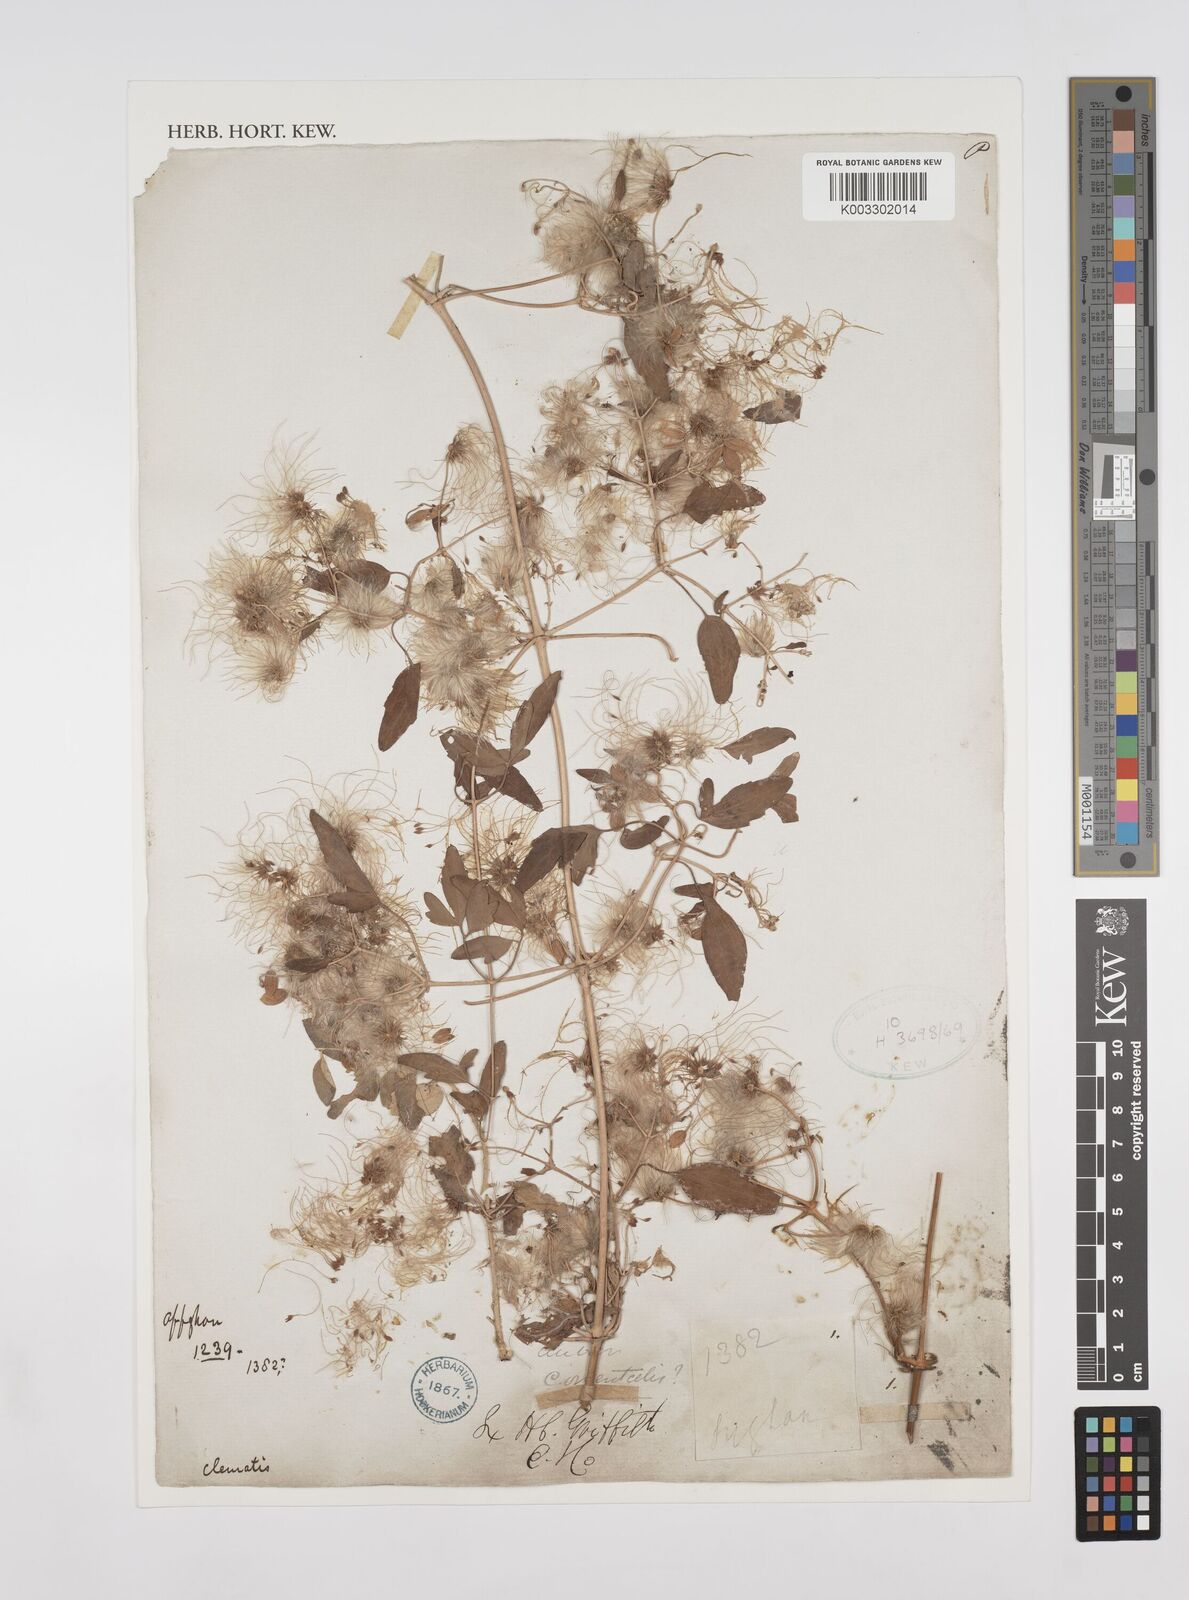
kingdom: Plantae
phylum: Tracheophyta
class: Magnoliopsida
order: Ranunculales
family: Ranunculaceae
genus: Clematis
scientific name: Clematis orientalis
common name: Oriental virgin's-bower
